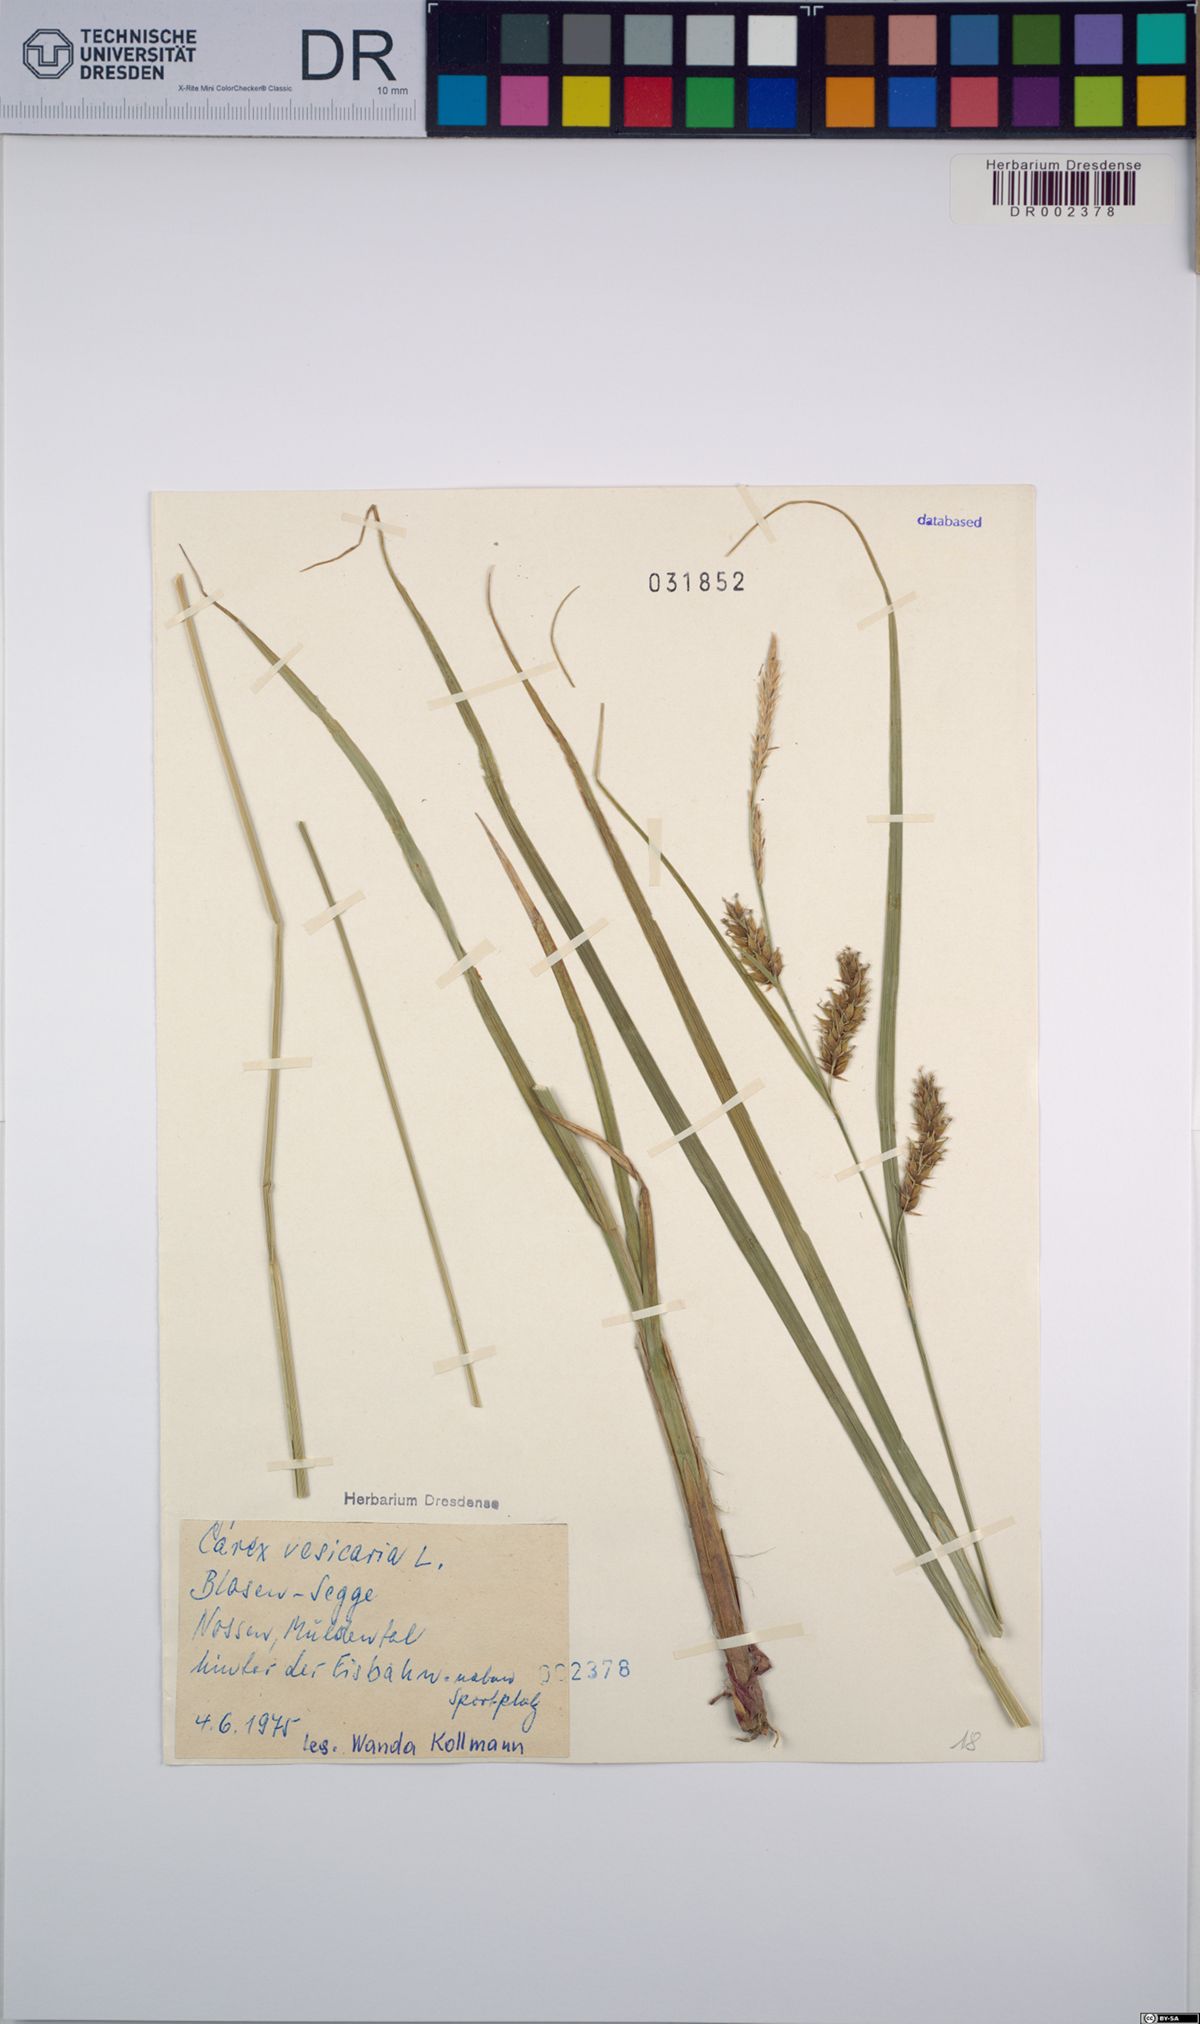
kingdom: Plantae
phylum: Tracheophyta
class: Liliopsida
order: Poales
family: Cyperaceae
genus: Carex
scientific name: Carex vesicaria
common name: Bladder-sedge
